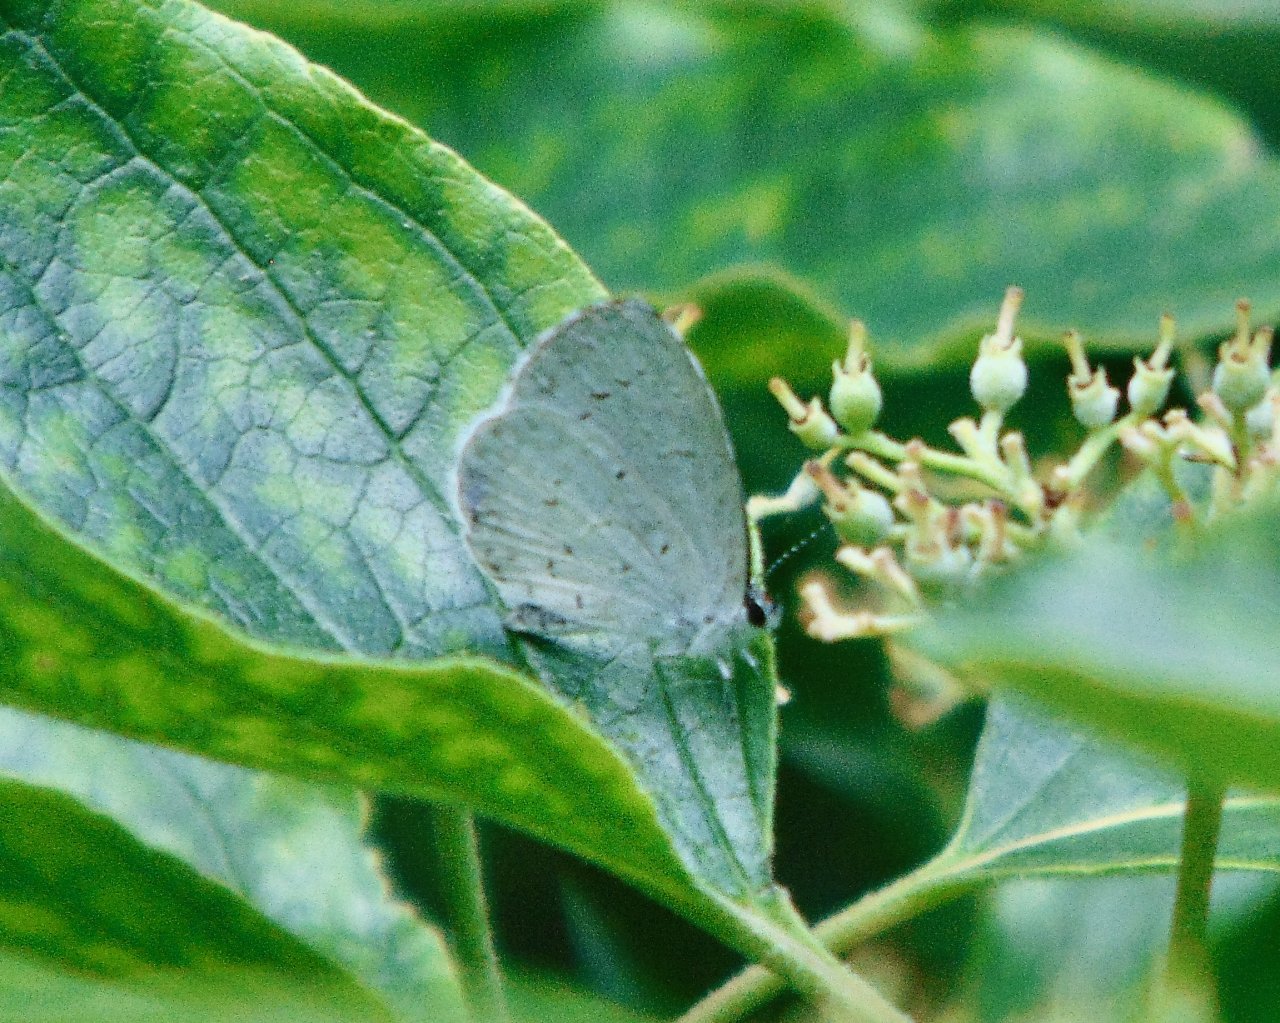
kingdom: Animalia
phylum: Arthropoda
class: Insecta
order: Lepidoptera
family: Lycaenidae
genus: Cyaniris
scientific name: Cyaniris neglecta
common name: Summer Azure
